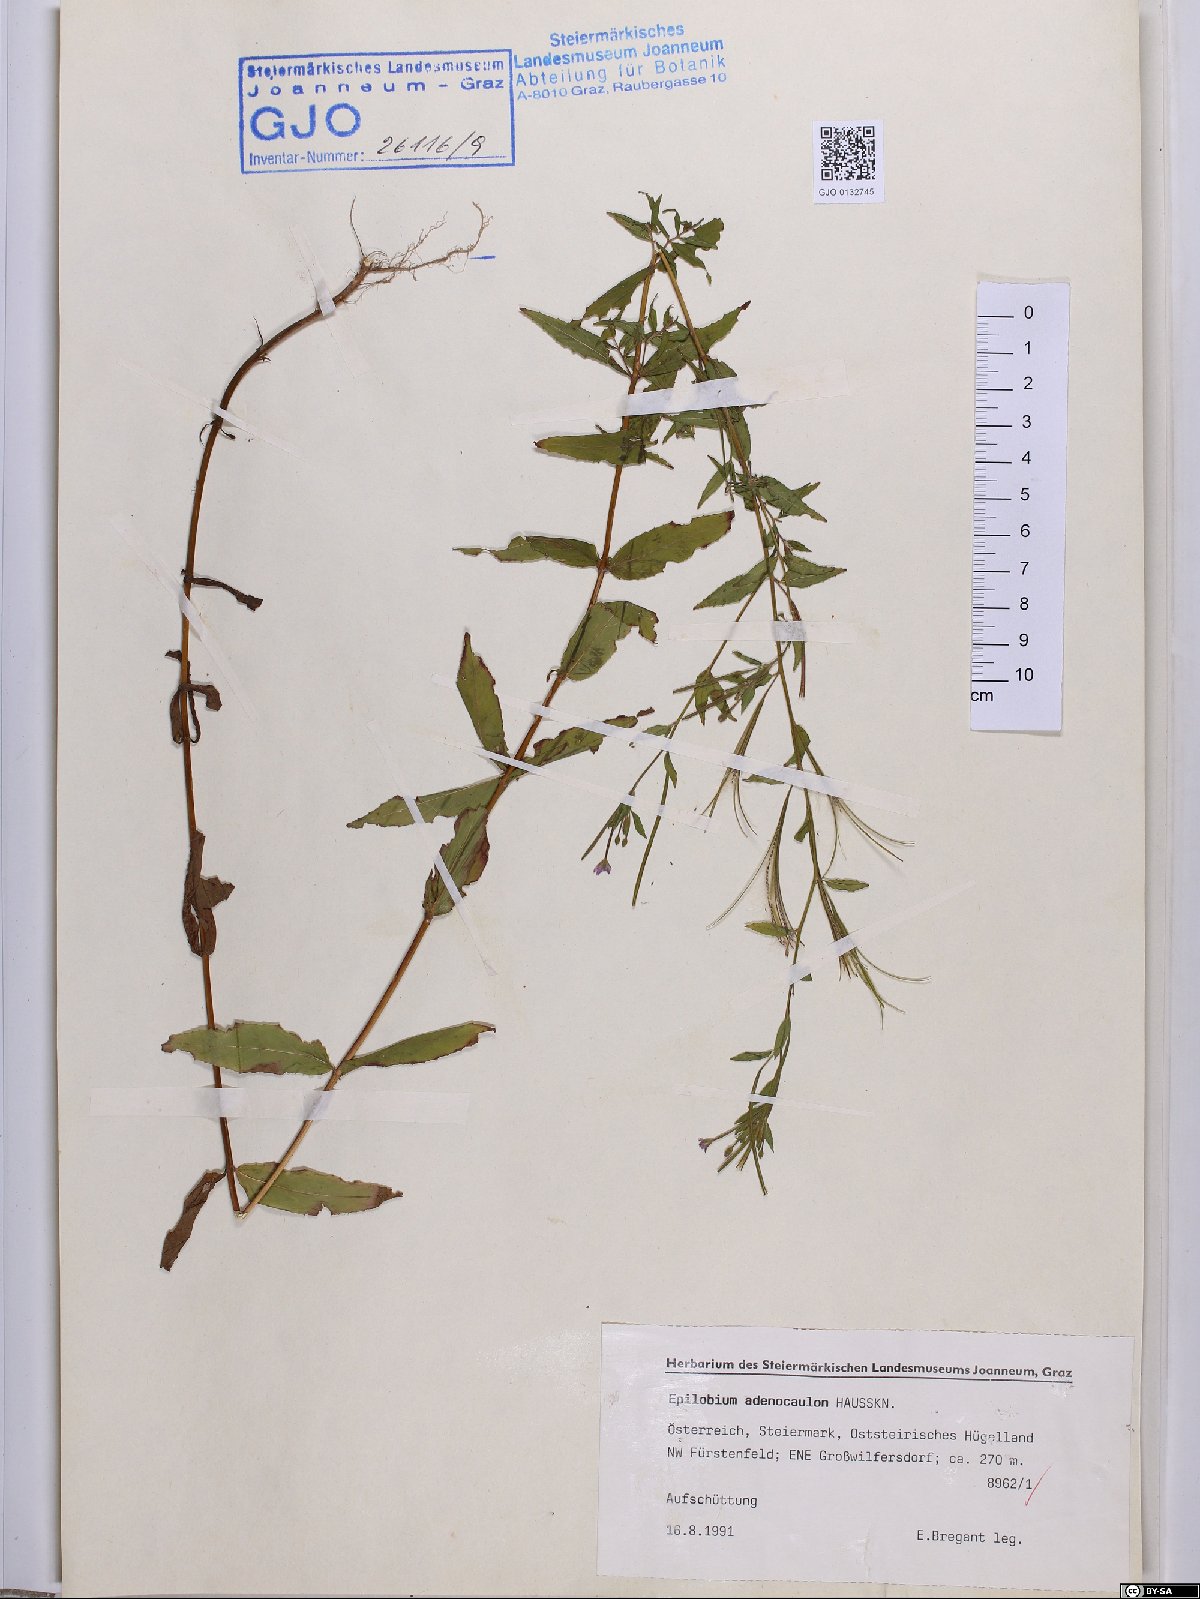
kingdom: Plantae
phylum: Tracheophyta
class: Magnoliopsida
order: Myrtales
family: Onagraceae
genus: Epilobium
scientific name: Epilobium ciliatum
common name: American willowherb
